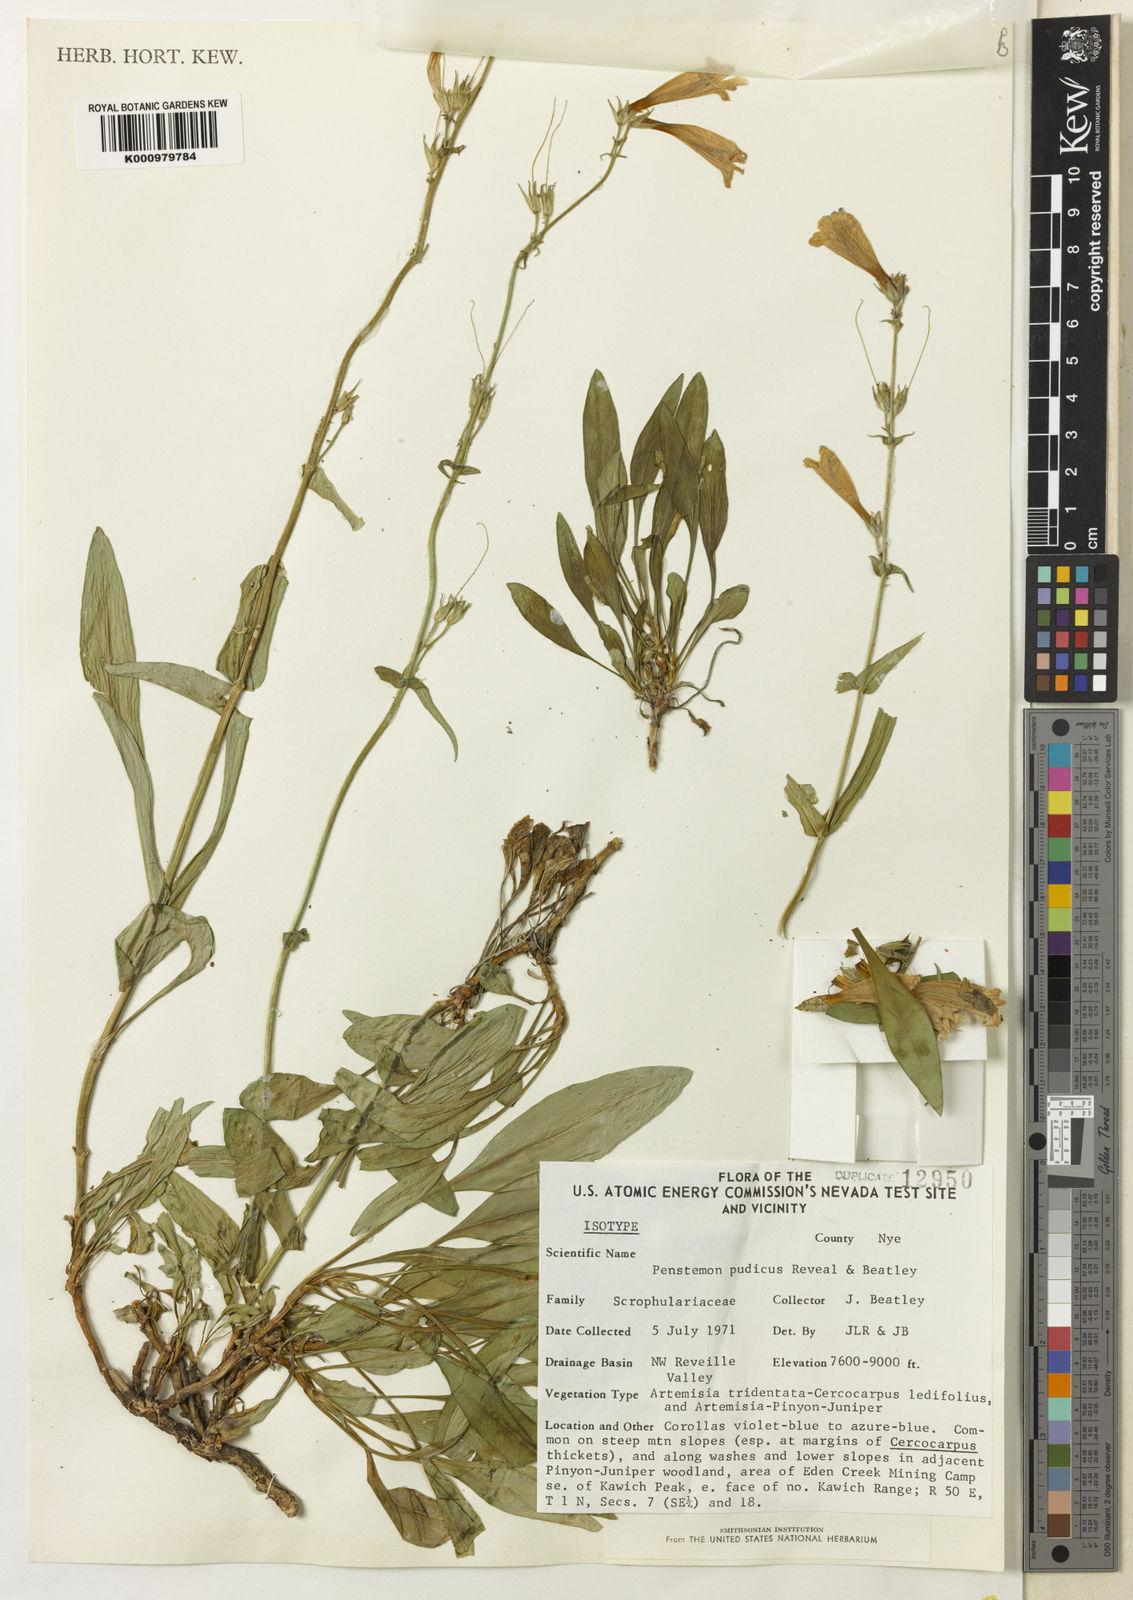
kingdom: Plantae
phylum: Tracheophyta
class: Magnoliopsida
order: Lamiales
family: Plantaginaceae
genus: Penstemon
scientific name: Penstemon pudicus
